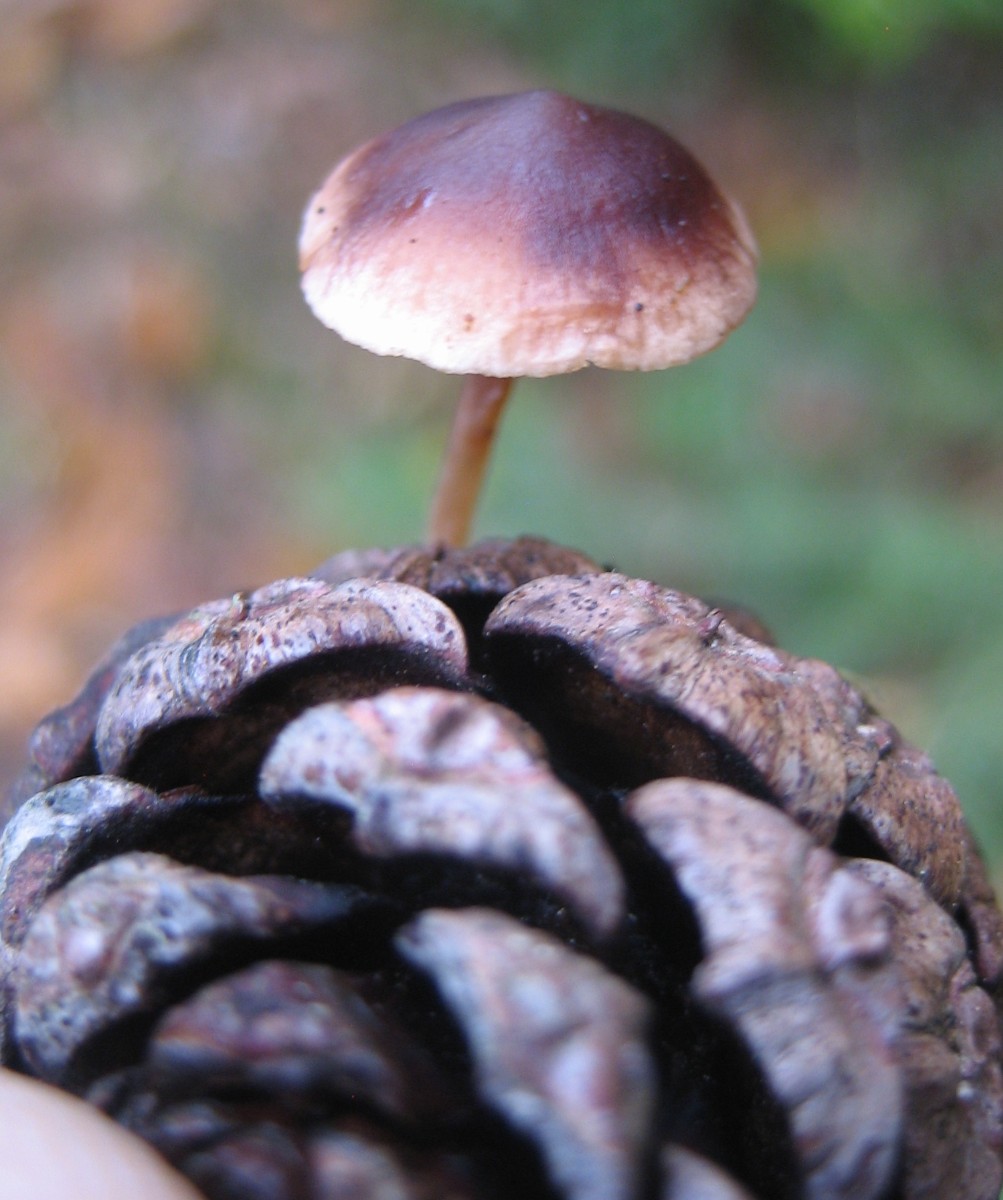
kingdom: Fungi
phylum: Basidiomycota
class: Agaricomycetes
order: Agaricales
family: Marasmiaceae
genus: Baeospora
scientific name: Baeospora myosura
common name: koglebruskhat
